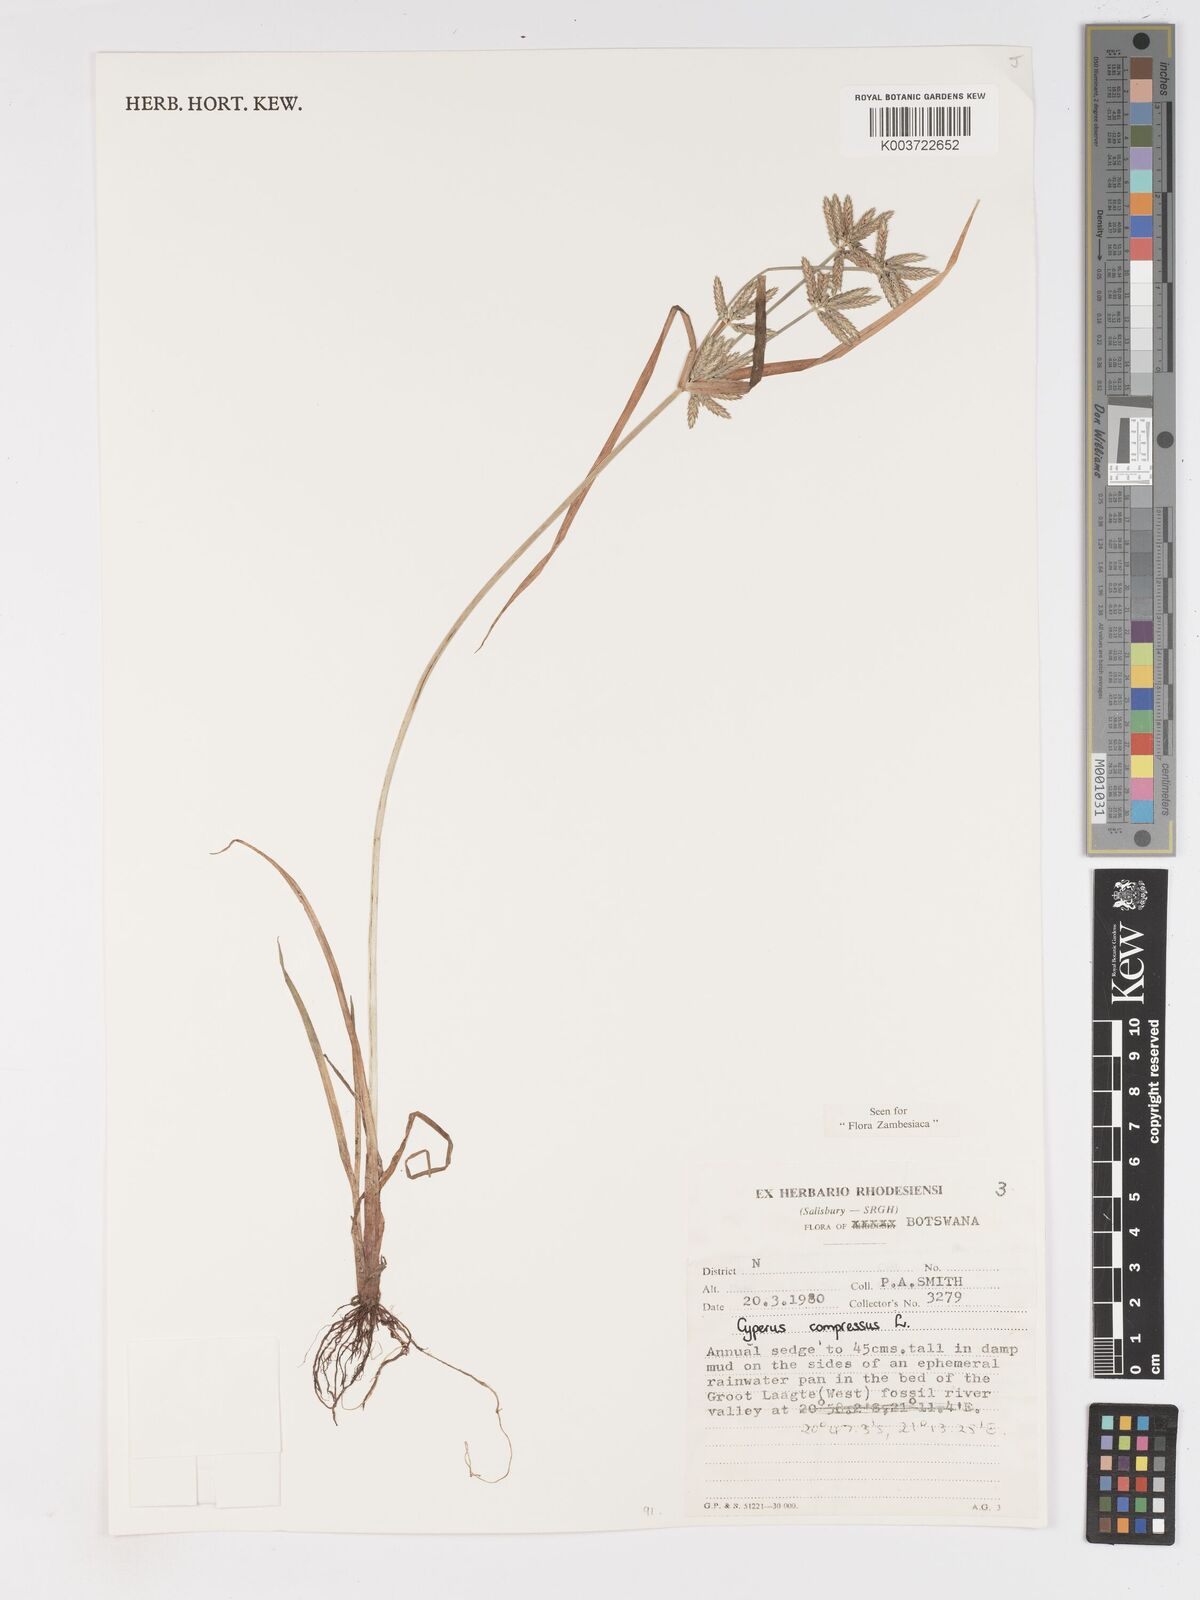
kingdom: Plantae
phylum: Tracheophyta
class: Liliopsida
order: Poales
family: Cyperaceae
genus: Cyperus
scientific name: Cyperus compressus
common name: Poorland flatsedge
